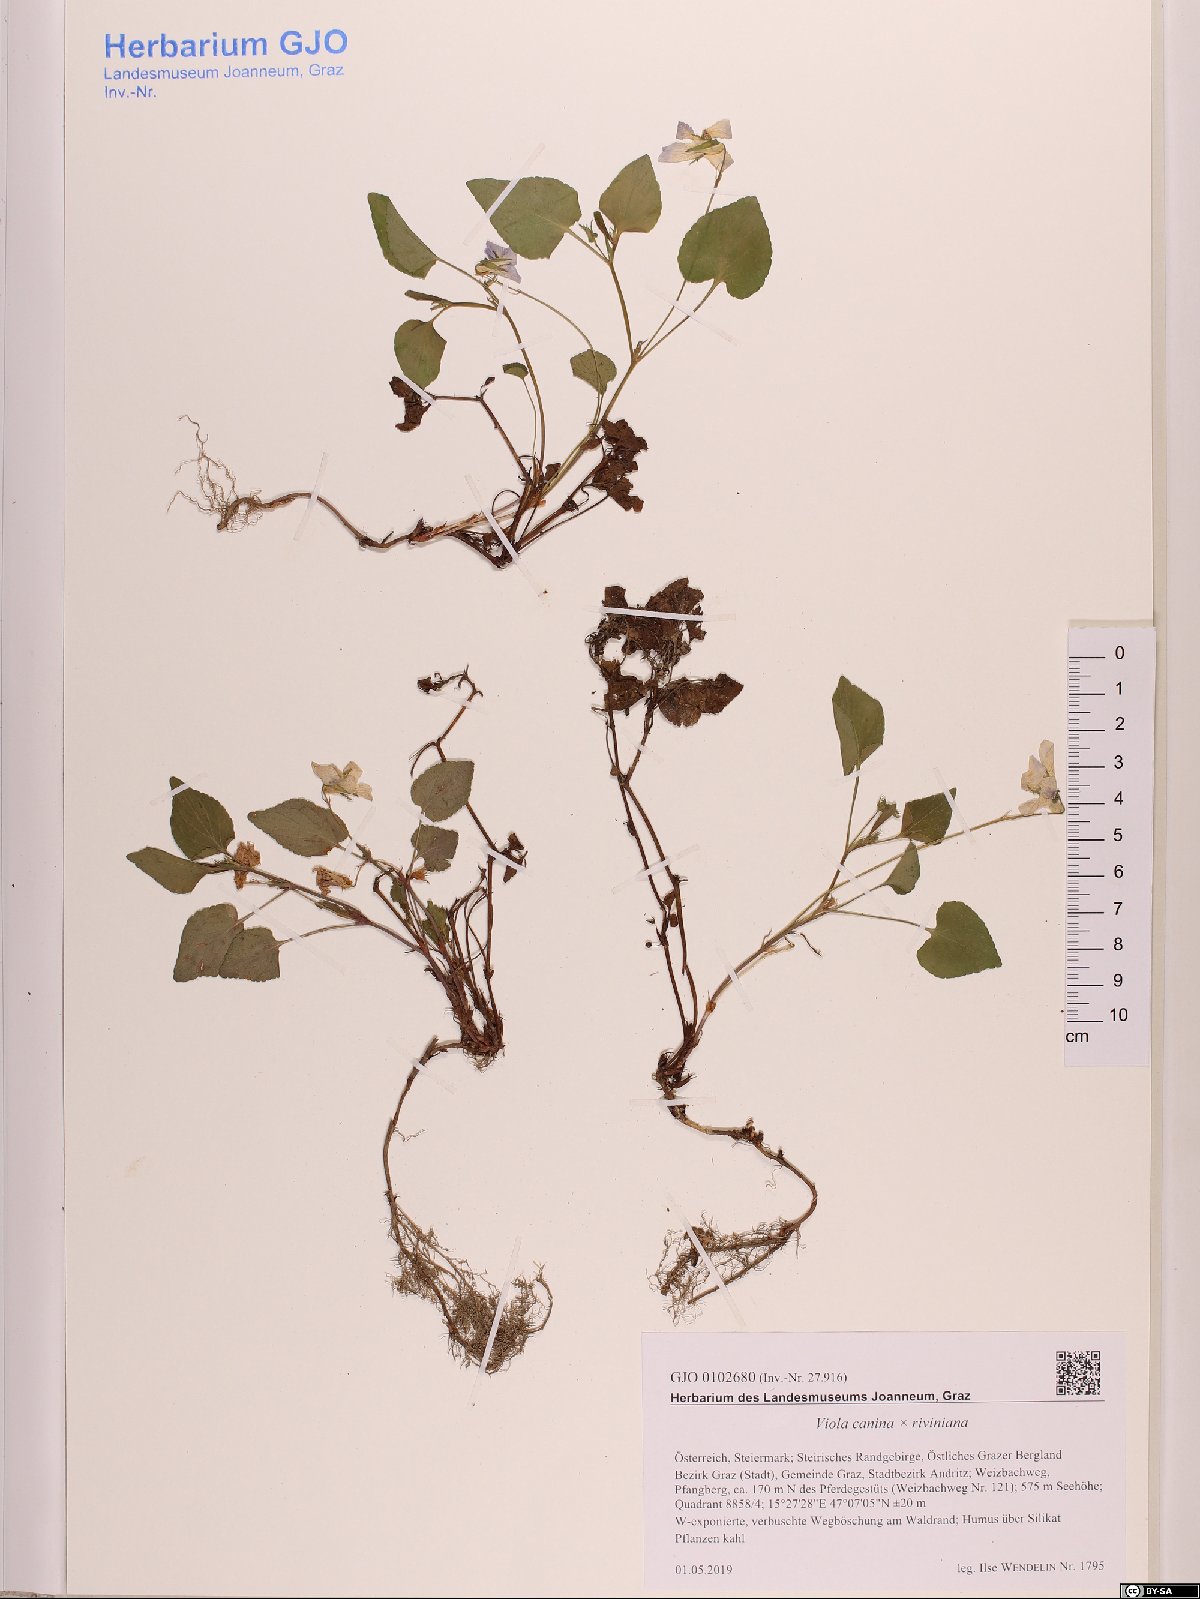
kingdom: Plantae
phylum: Tracheophyta
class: Magnoliopsida
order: Malpighiales
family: Violaceae
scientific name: Violaceae
